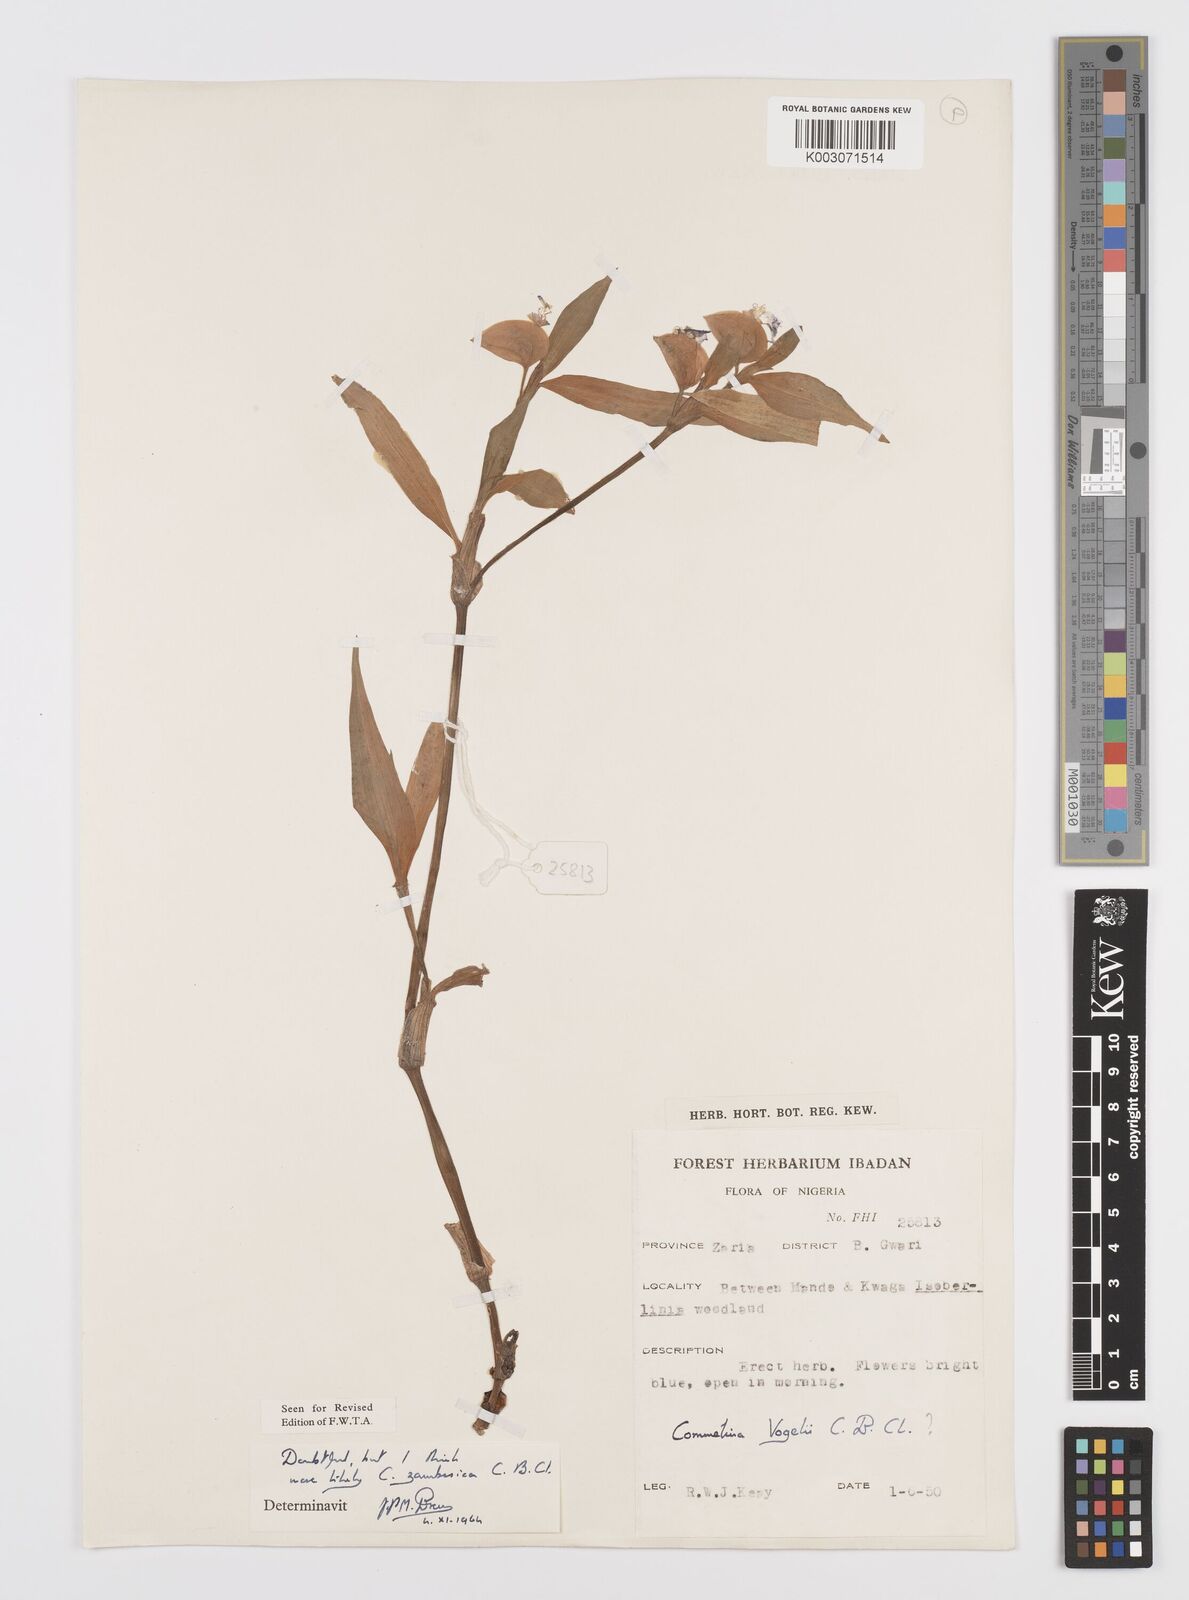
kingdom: Plantae
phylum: Tracheophyta
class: Liliopsida
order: Commelinales
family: Commelinaceae
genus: Commelina
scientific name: Commelina zambesica
